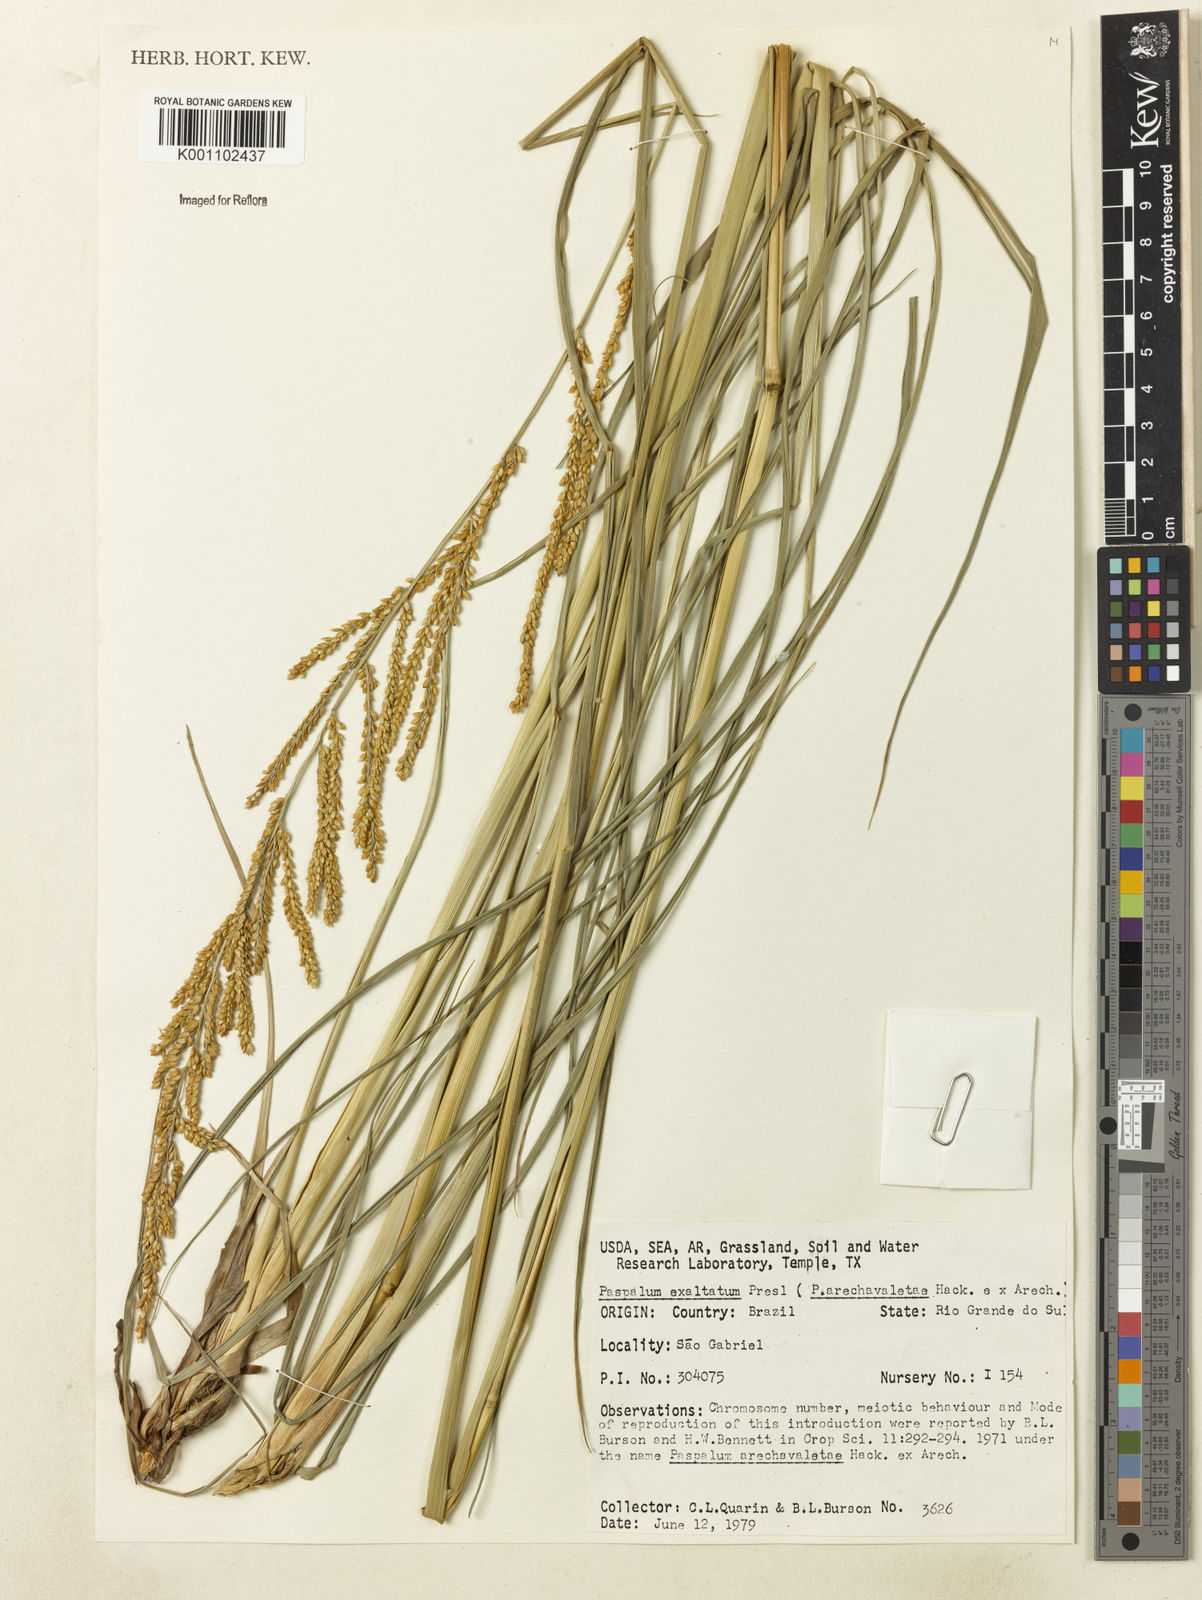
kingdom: Plantae
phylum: Tracheophyta
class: Liliopsida
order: Poales
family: Poaceae
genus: Paspalum
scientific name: Paspalum exaltatum
